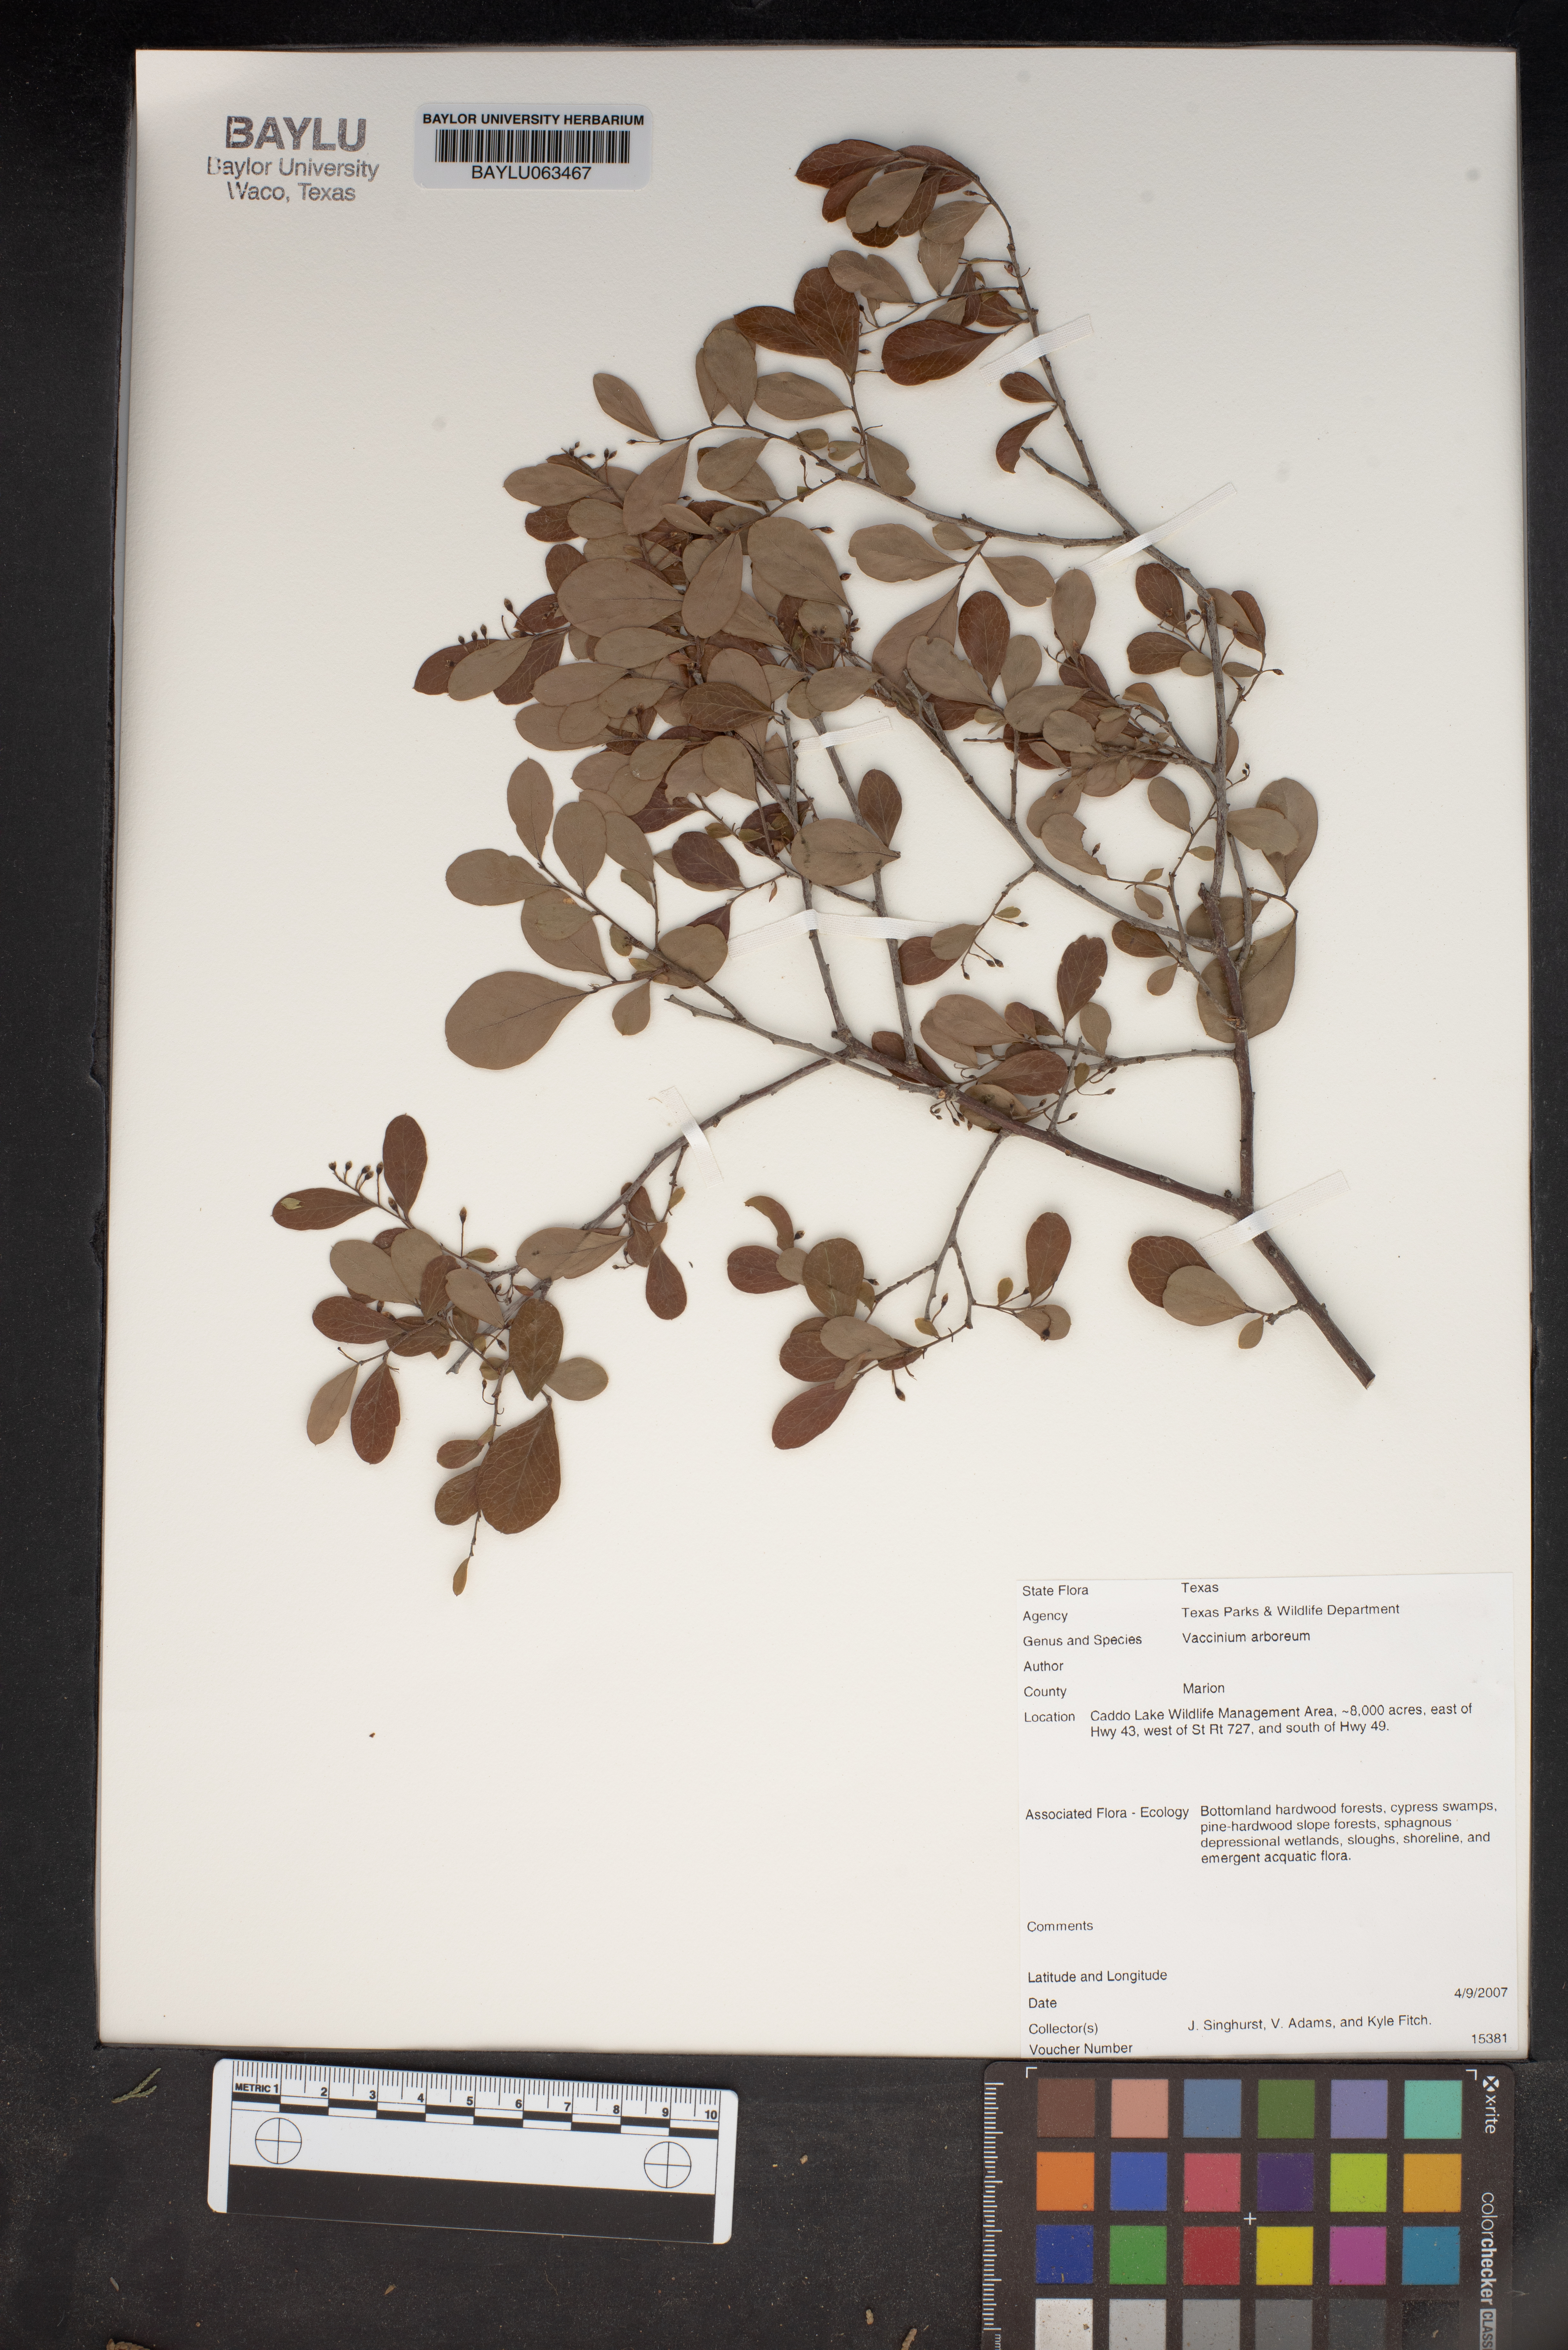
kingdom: Plantae
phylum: Tracheophyta
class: Magnoliopsida
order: Ericales
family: Ericaceae
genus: Vaccinium
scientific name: Vaccinium arboreum
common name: Farkleberry
